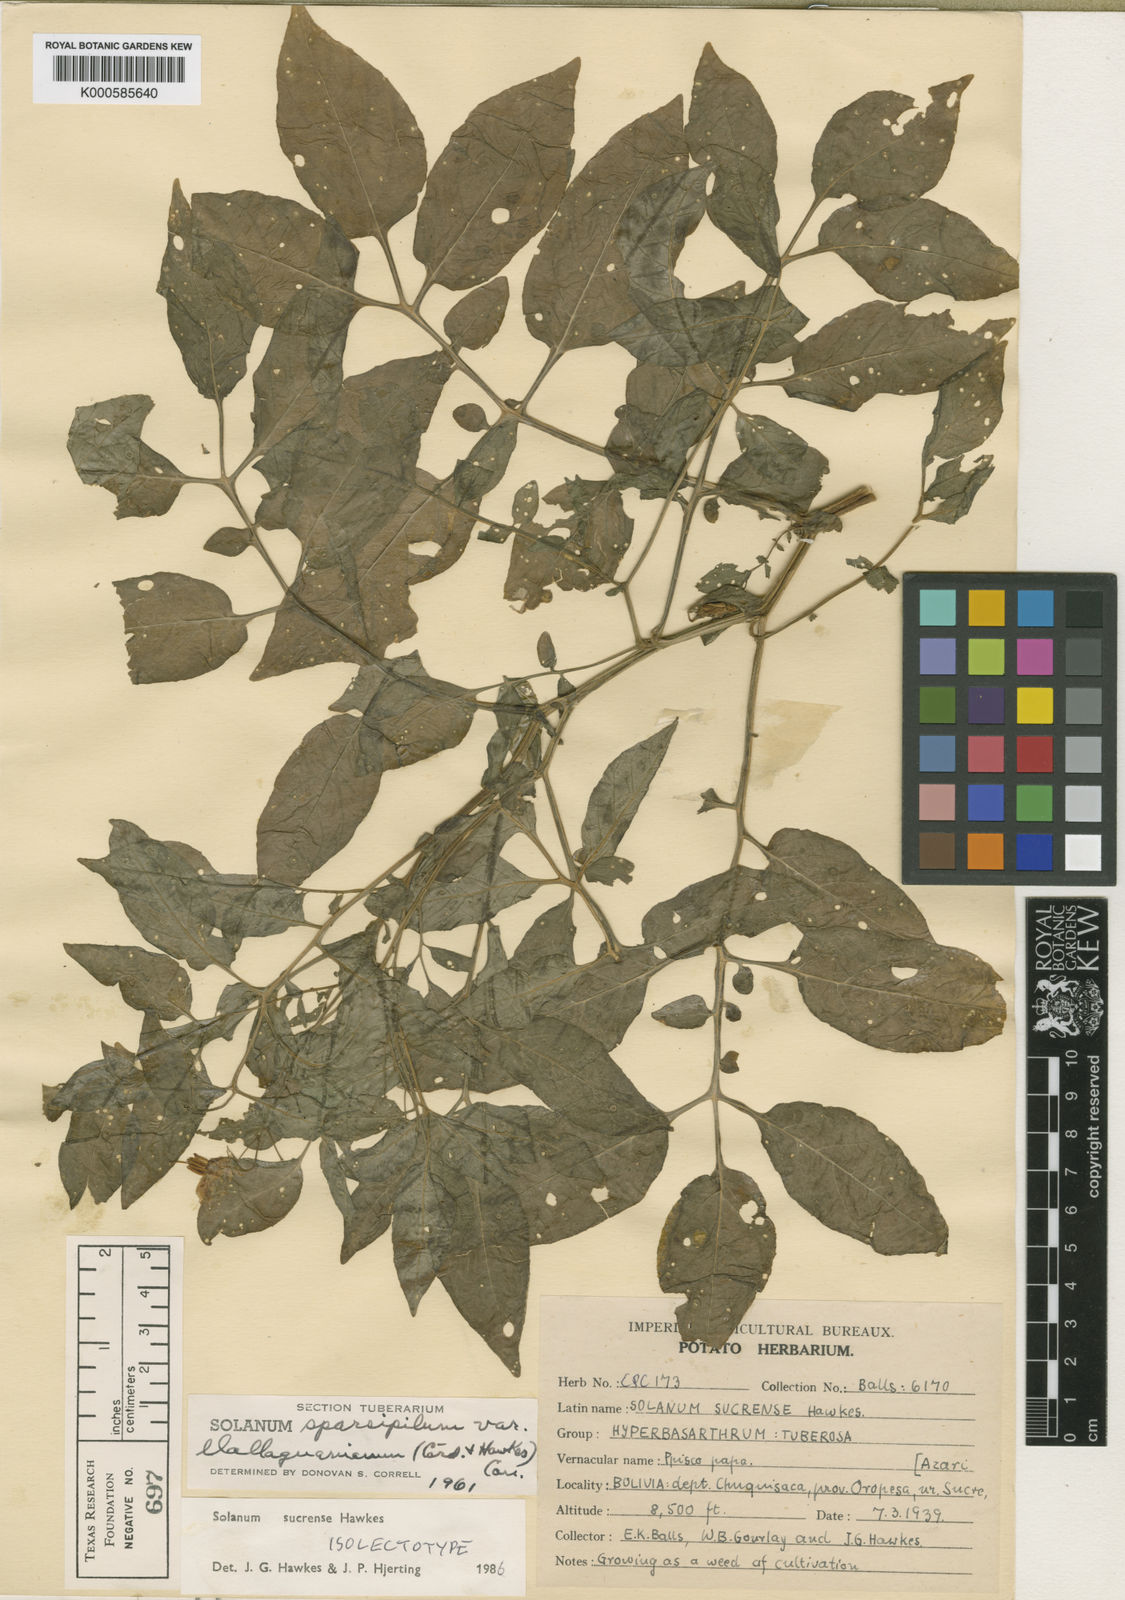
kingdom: Plantae
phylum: Tracheophyta
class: Magnoliopsida
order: Solanales
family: Solanaceae
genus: Solanum
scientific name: Solanum brevicaule
